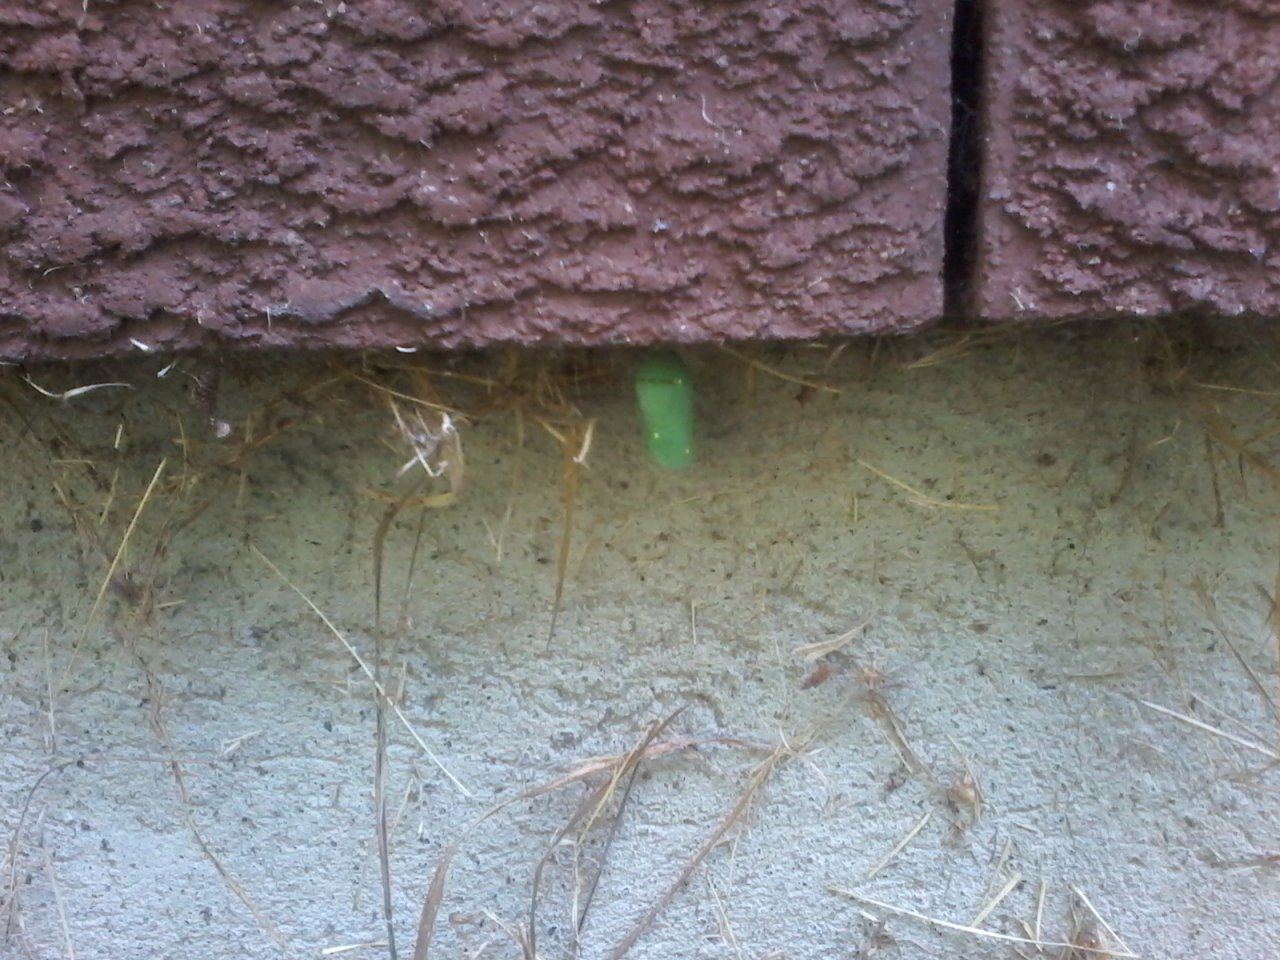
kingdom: Animalia
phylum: Arthropoda
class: Insecta
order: Lepidoptera
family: Nymphalidae
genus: Danaus
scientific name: Danaus plexippus
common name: Monarch
